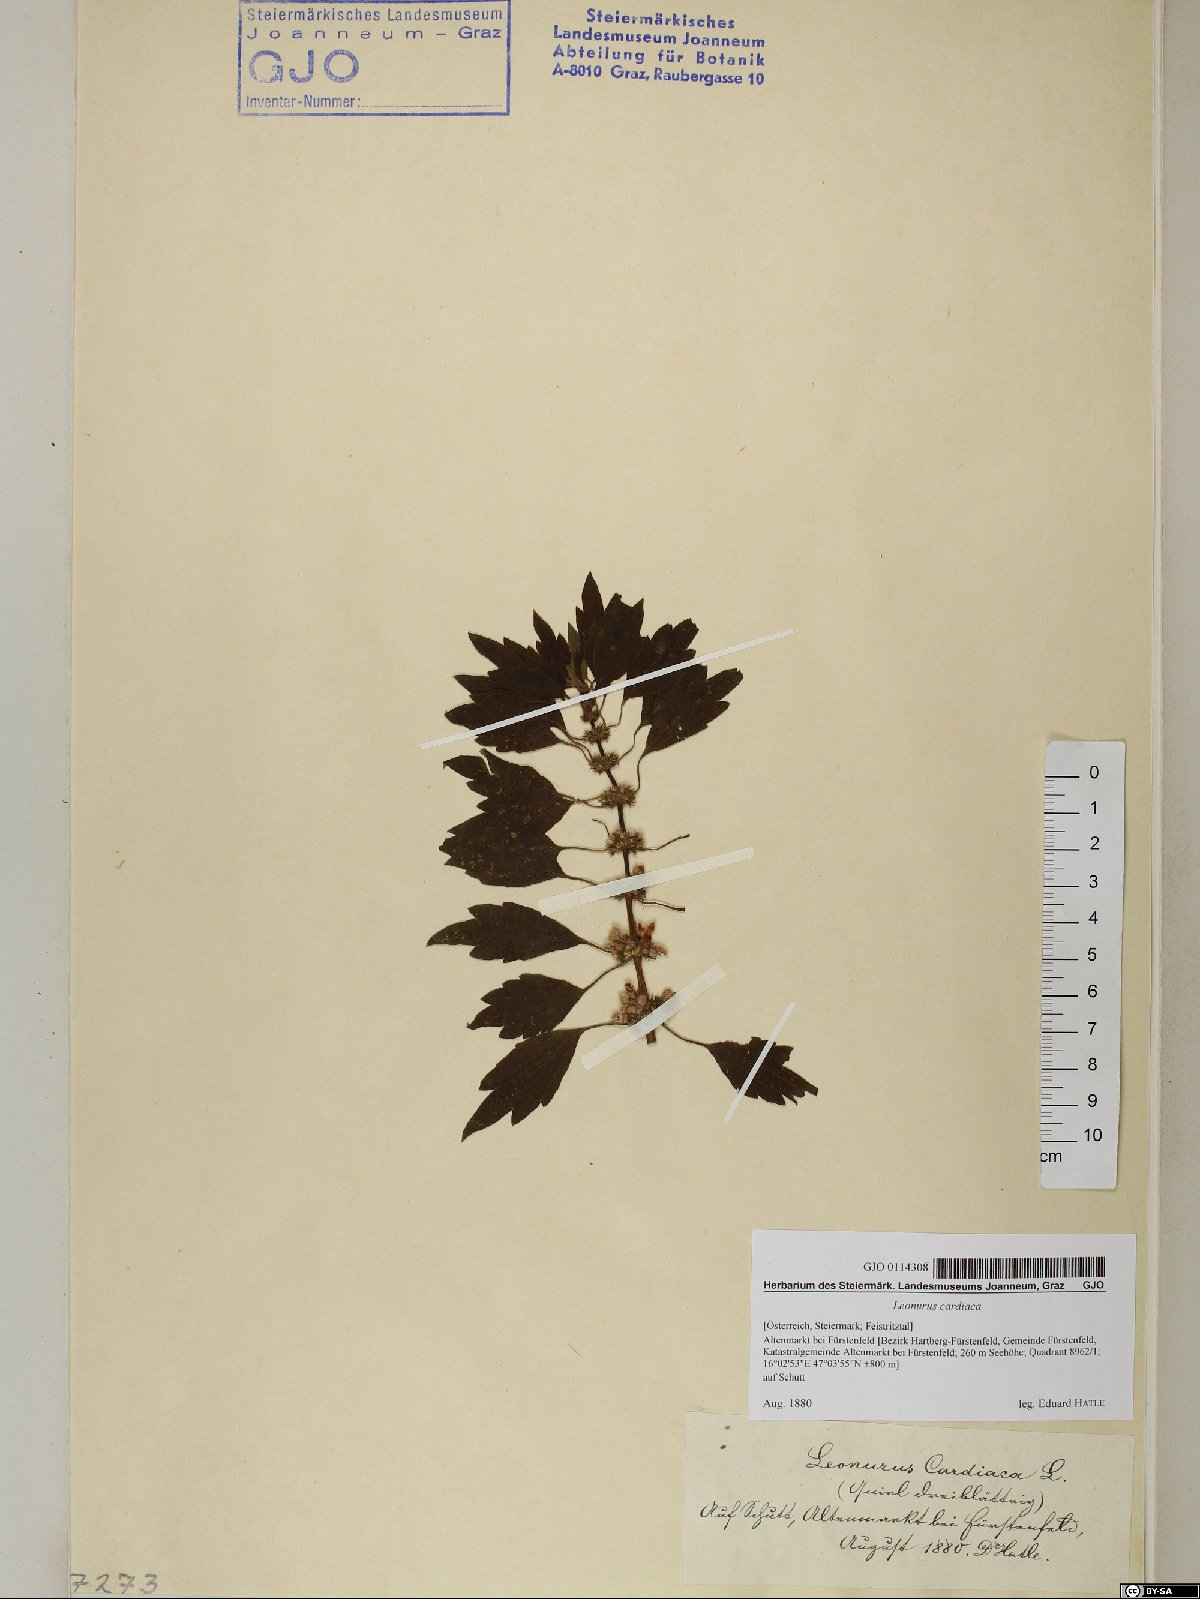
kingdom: Plantae
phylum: Tracheophyta
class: Magnoliopsida
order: Lamiales
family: Lamiaceae
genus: Leonurus
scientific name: Leonurus cardiaca
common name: Motherwort
